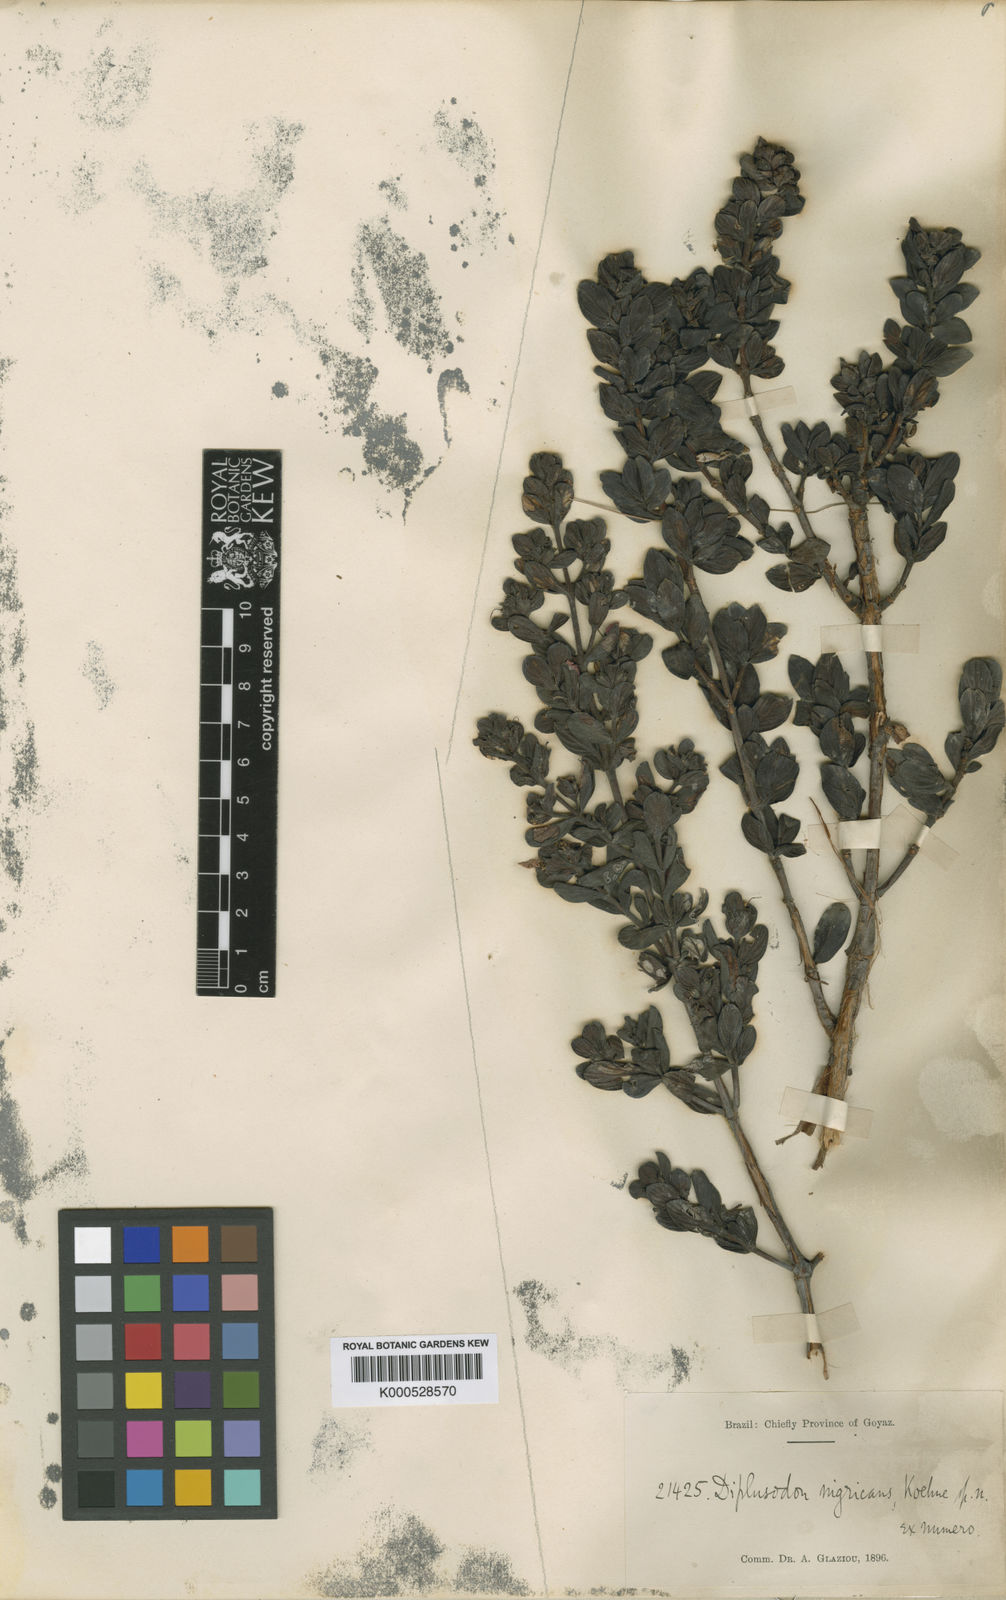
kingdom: Plantae
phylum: Tracheophyta
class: Magnoliopsida
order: Myrtales
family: Lythraceae
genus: Diplusodon
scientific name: Diplusodon nigricans
